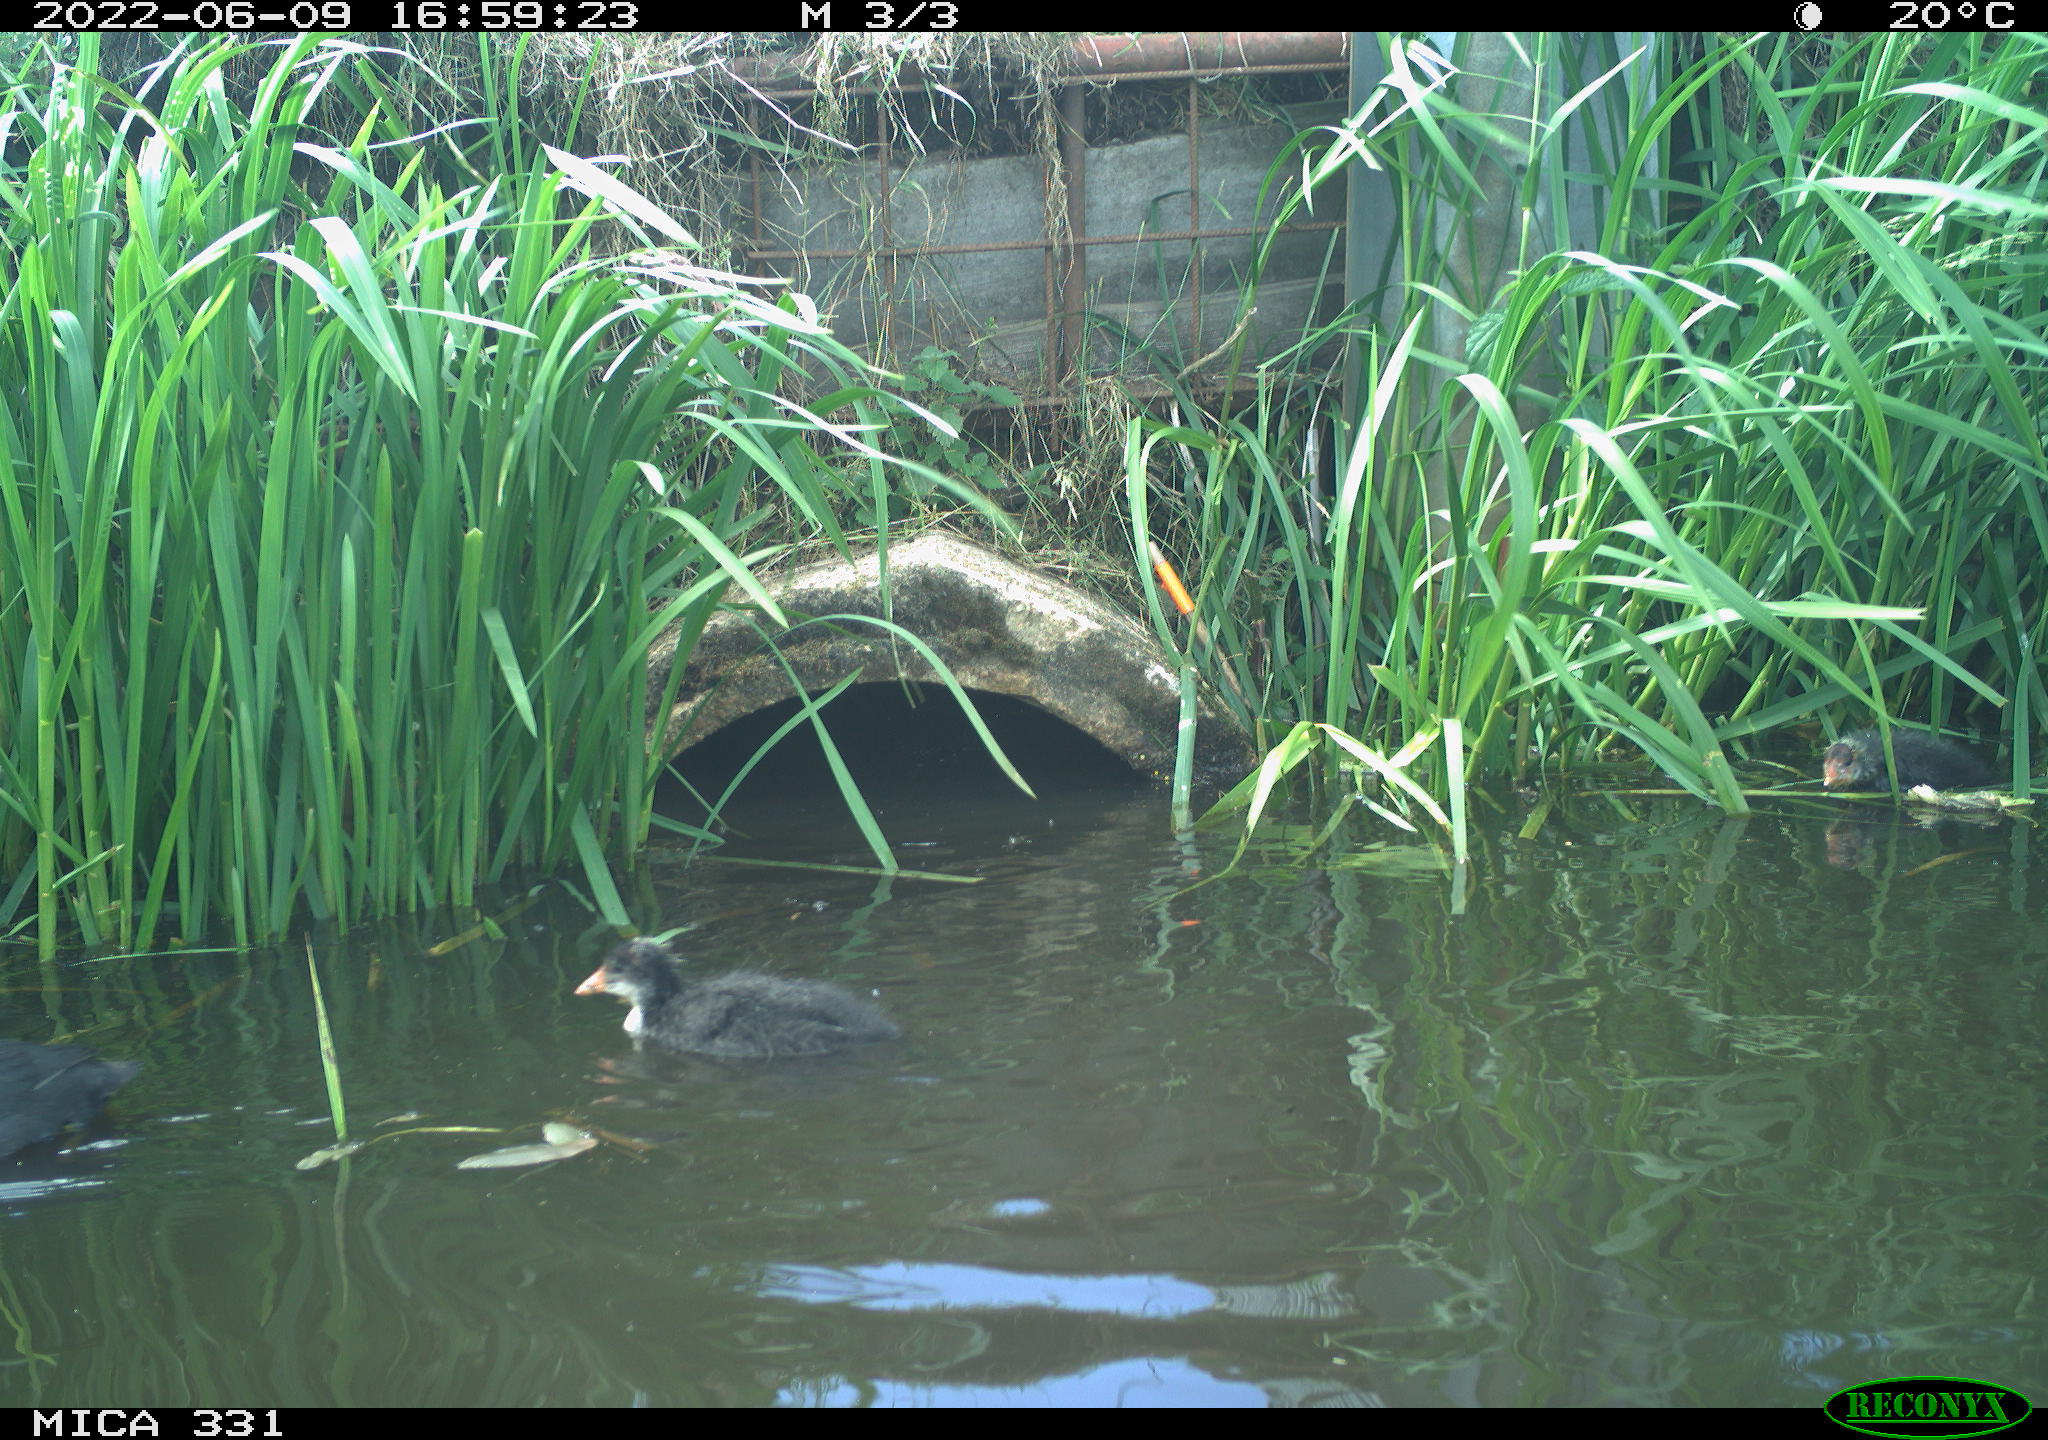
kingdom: Animalia
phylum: Chordata
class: Aves
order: Gruiformes
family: Rallidae
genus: Fulica
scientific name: Fulica atra
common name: Eurasian coot
